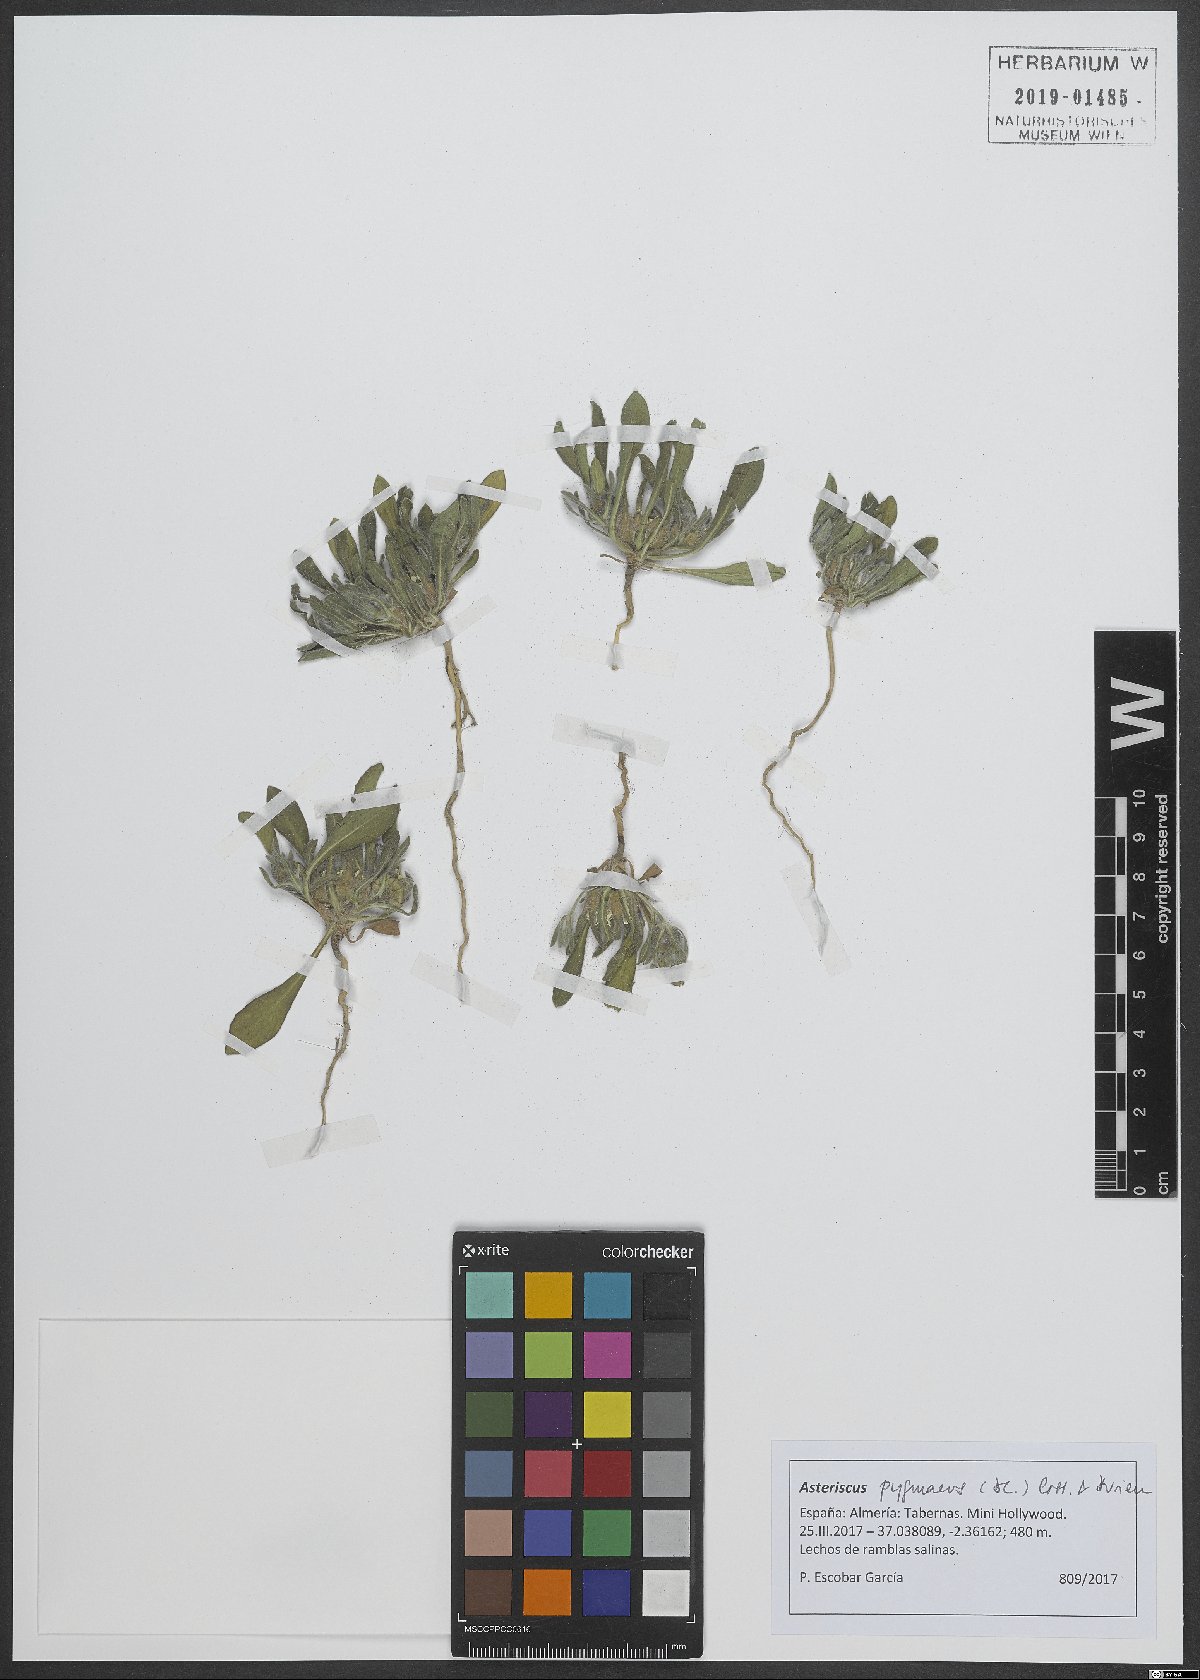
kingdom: Plantae
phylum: Tracheophyta
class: Magnoliopsida
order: Asterales
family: Asteraceae
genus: Pallenis
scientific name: Pallenis hierochuntica
